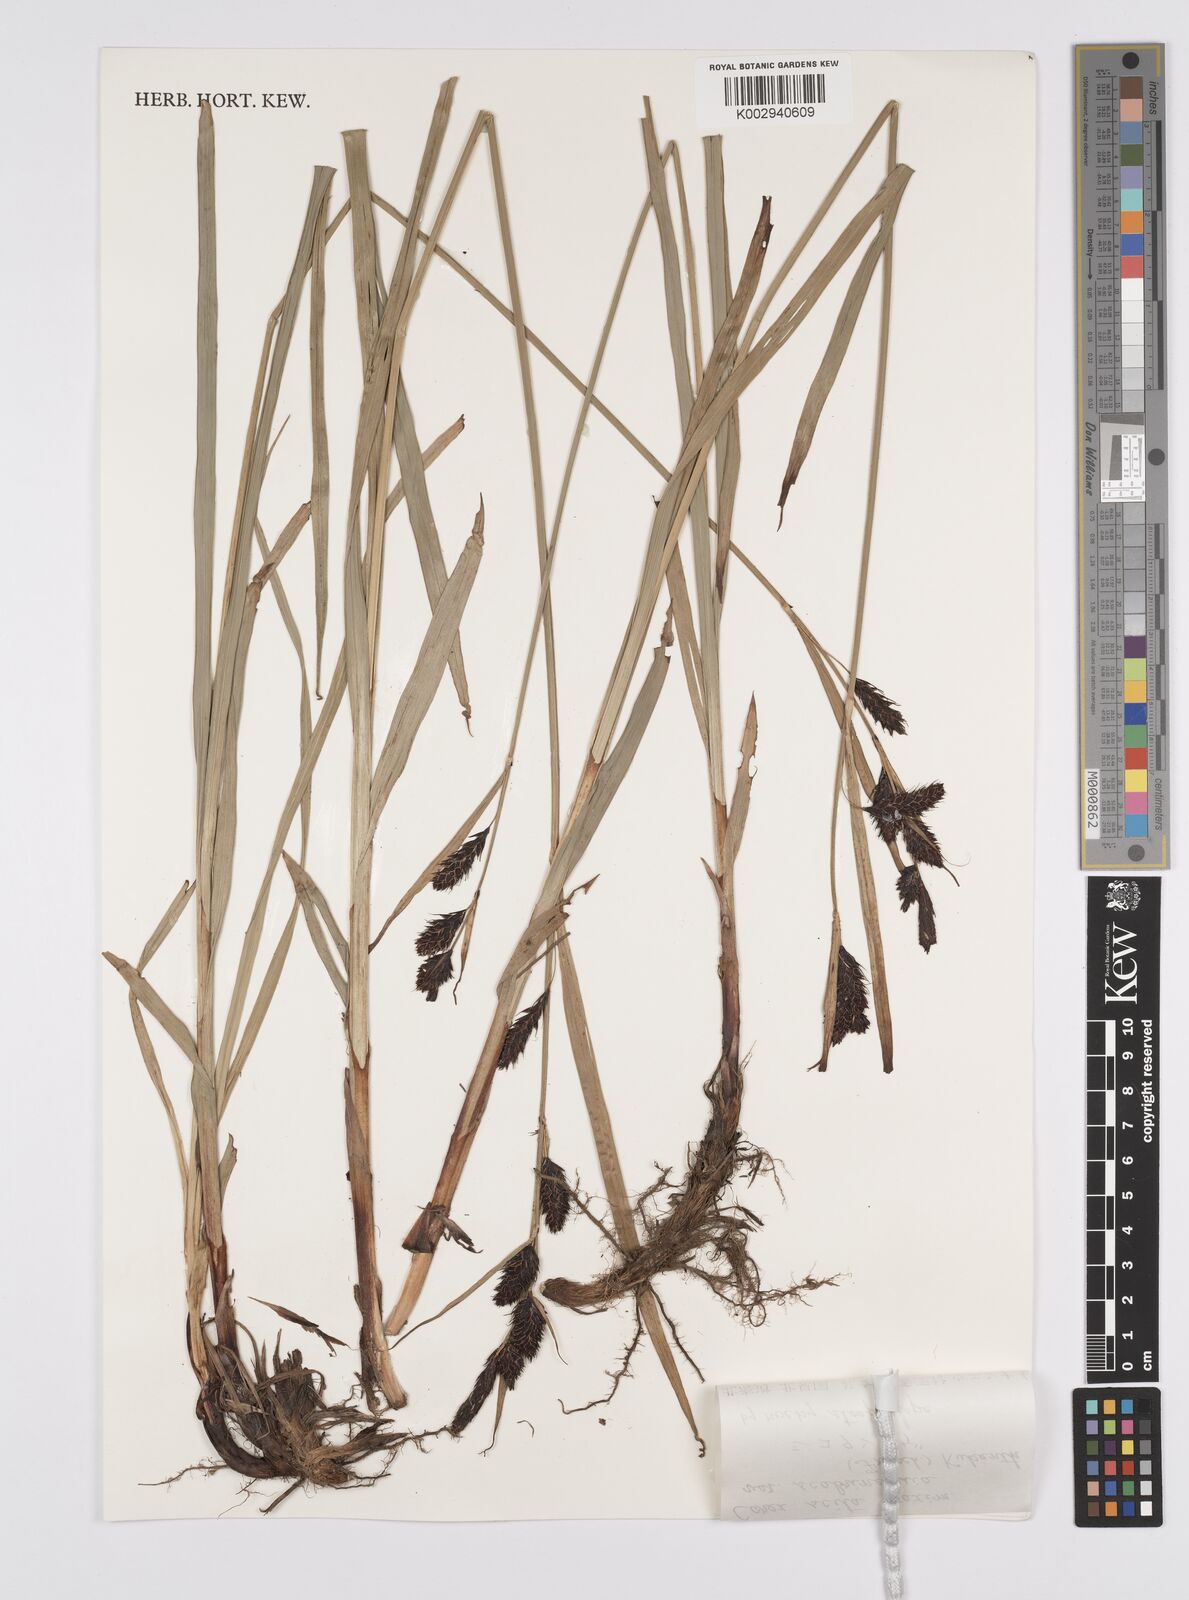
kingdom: Plantae
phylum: Tracheophyta
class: Liliopsida
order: Poales
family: Cyperaceae
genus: Carex
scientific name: Carex scita
